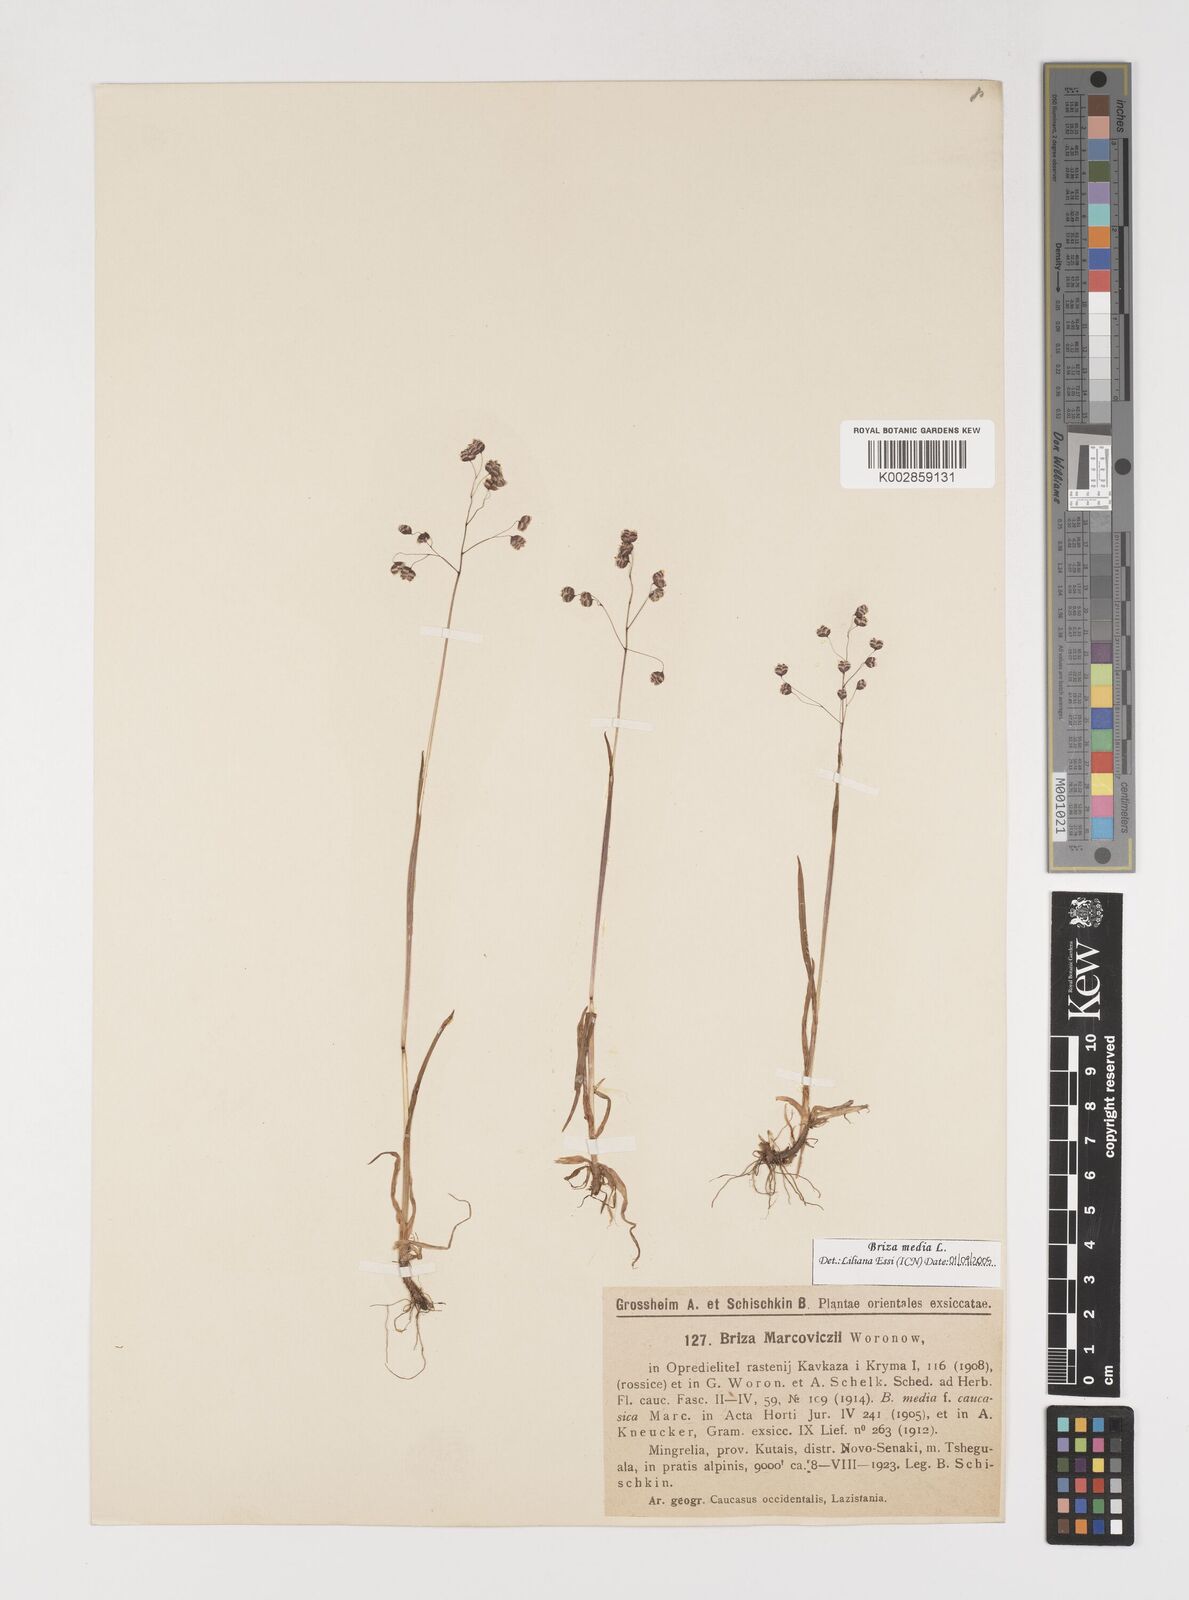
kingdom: Plantae
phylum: Tracheophyta
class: Liliopsida
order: Poales
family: Poaceae
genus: Briza
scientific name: Briza marcowiczii
